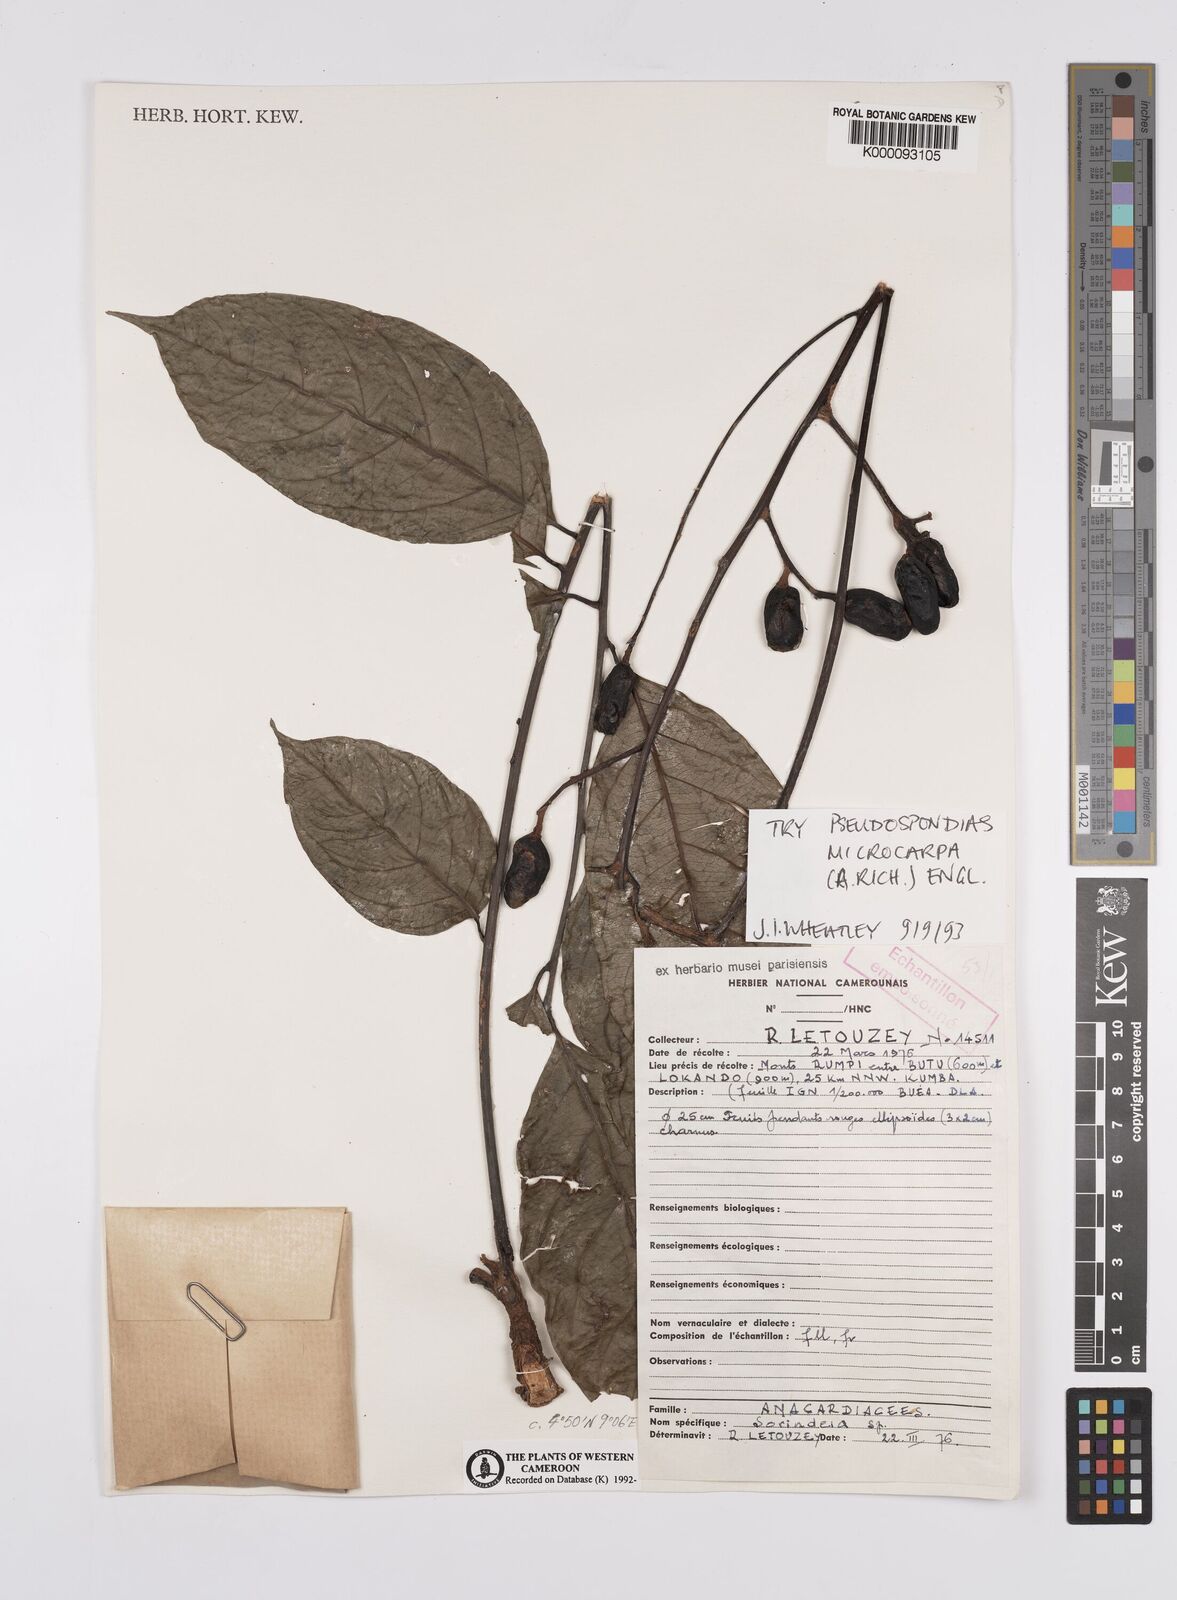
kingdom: Plantae
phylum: Tracheophyta
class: Magnoliopsida
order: Sapindales
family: Anacardiaceae
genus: Sorindeia
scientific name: Sorindeia
